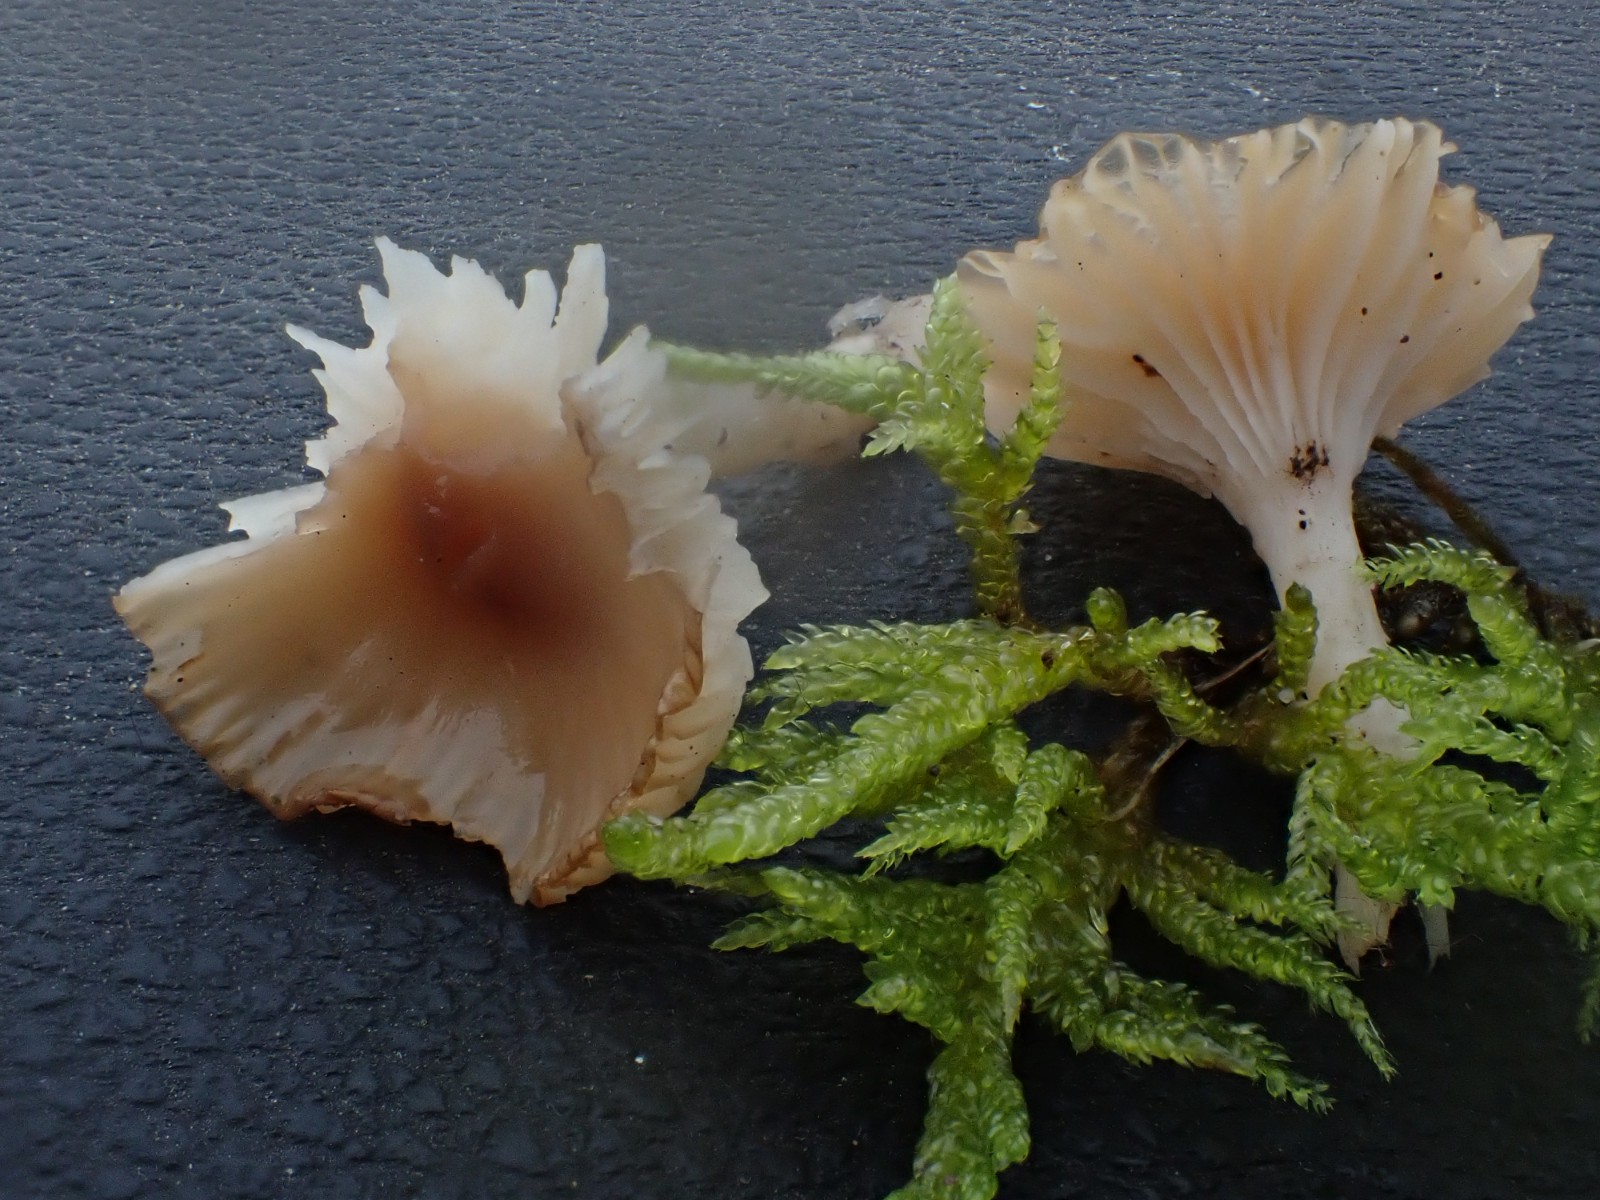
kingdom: Fungi
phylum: Basidiomycota
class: Agaricomycetes
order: Agaricales
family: Hygrophoraceae
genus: Cuphophyllus
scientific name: Cuphophyllus colemannianus
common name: rødbrun vokshat
